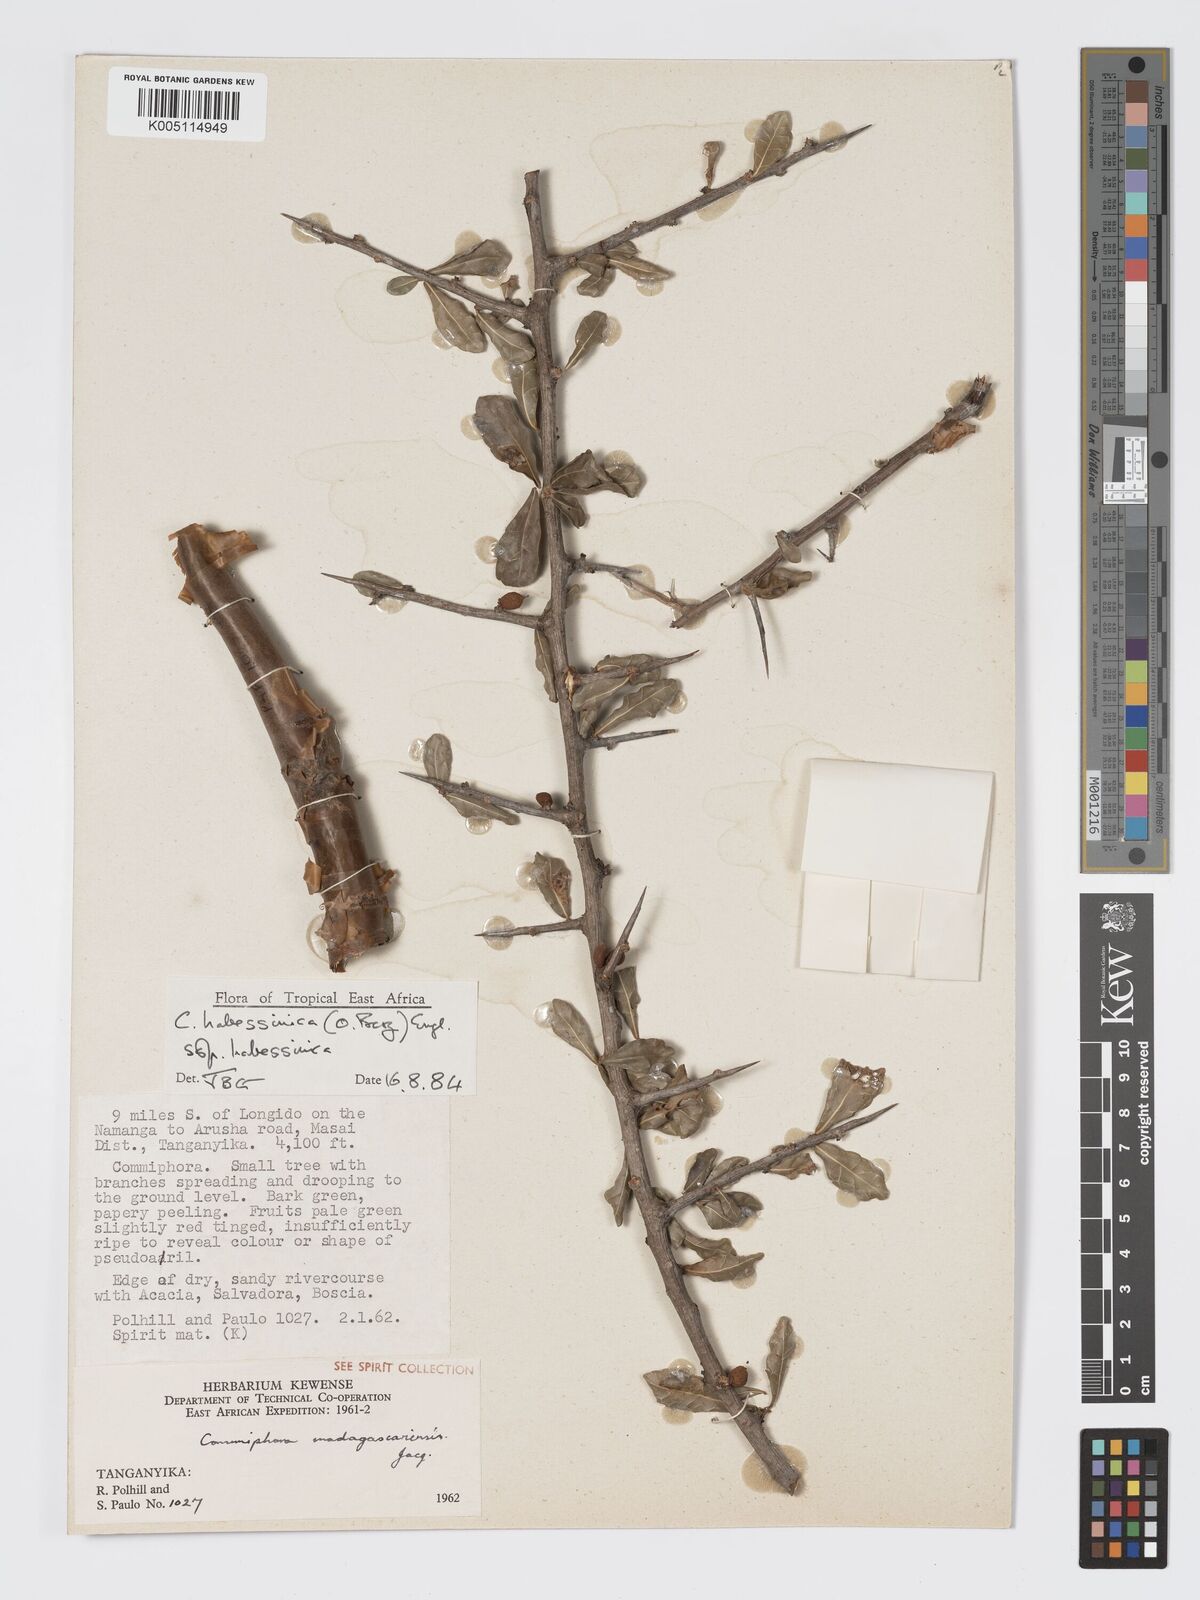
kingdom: Plantae
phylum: Tracheophyta
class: Magnoliopsida
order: Sapindales
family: Burseraceae
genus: Commiphora
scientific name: Commiphora madagascariensis
